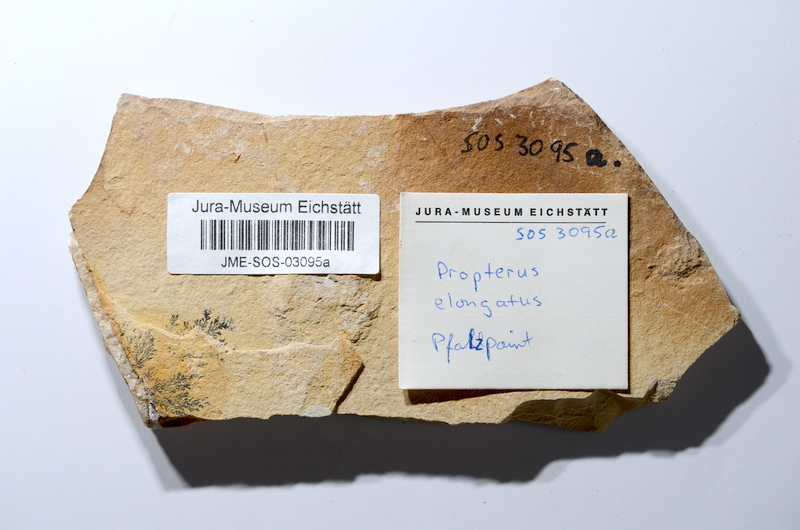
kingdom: Animalia
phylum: Chordata
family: Macrosemiidae
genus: Propterus
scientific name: Propterus elongatus
